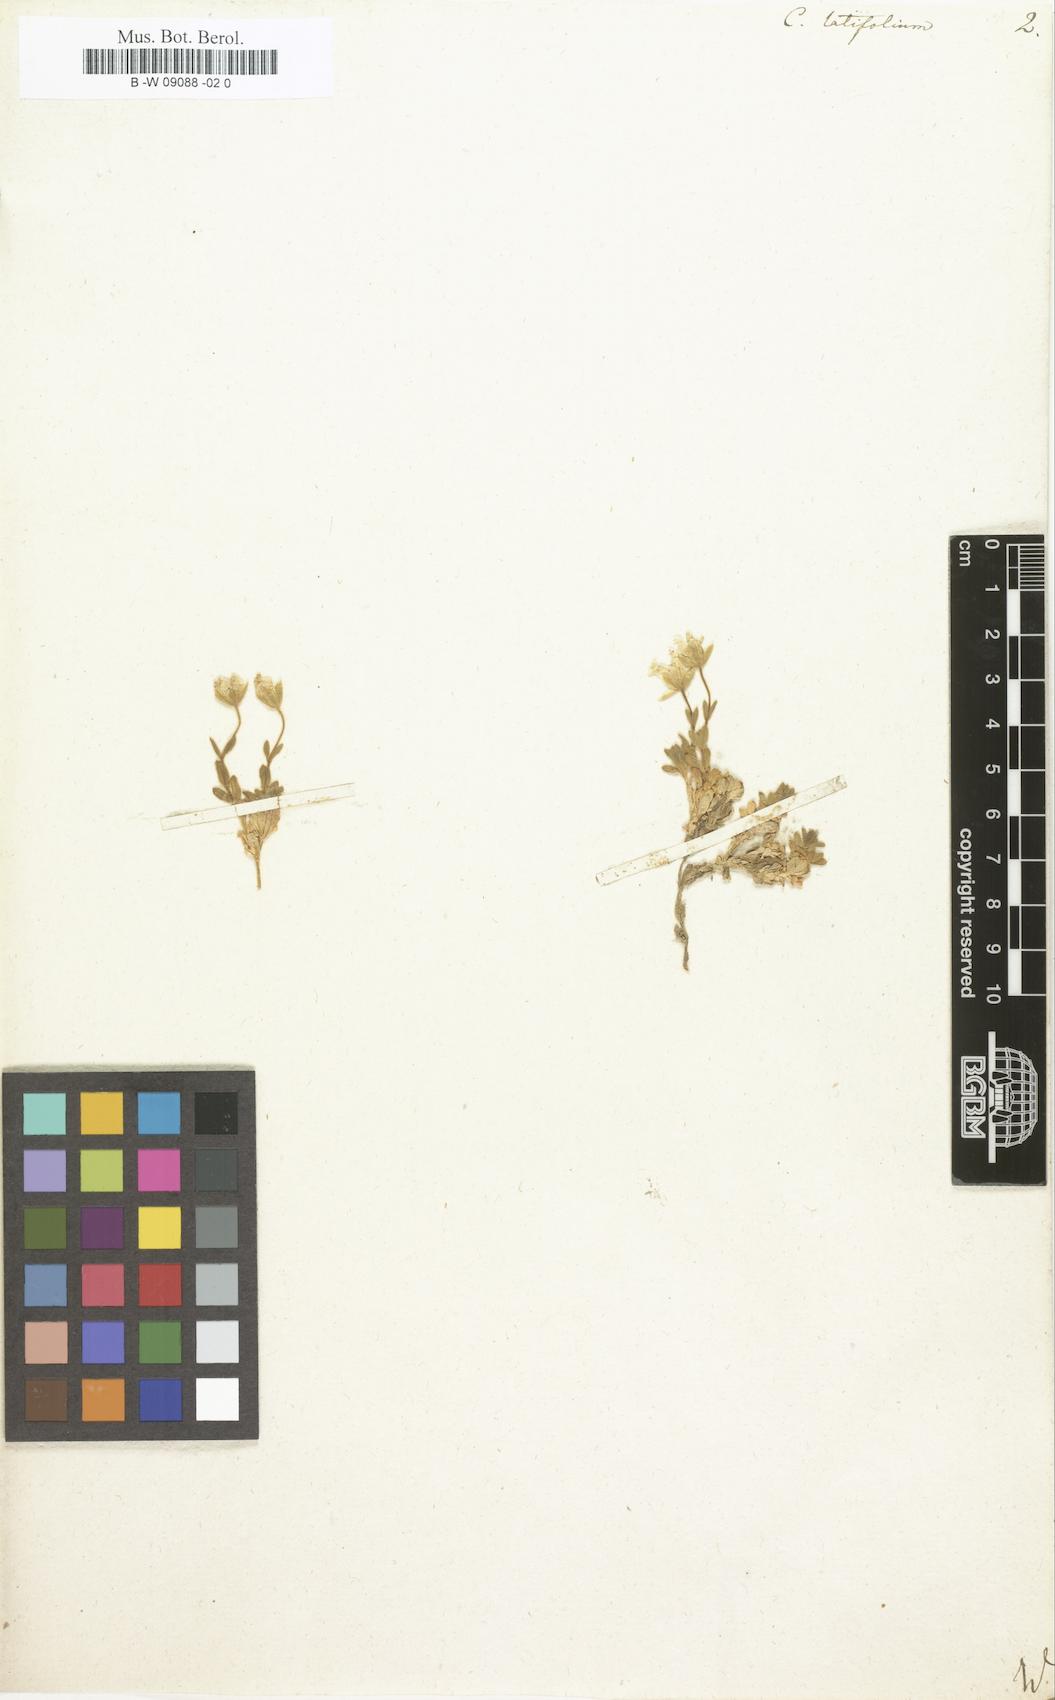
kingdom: Plantae
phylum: Tracheophyta
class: Magnoliopsida
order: Caryophyllales
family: Caryophyllaceae
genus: Cerastium
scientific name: Cerastium latifolium
